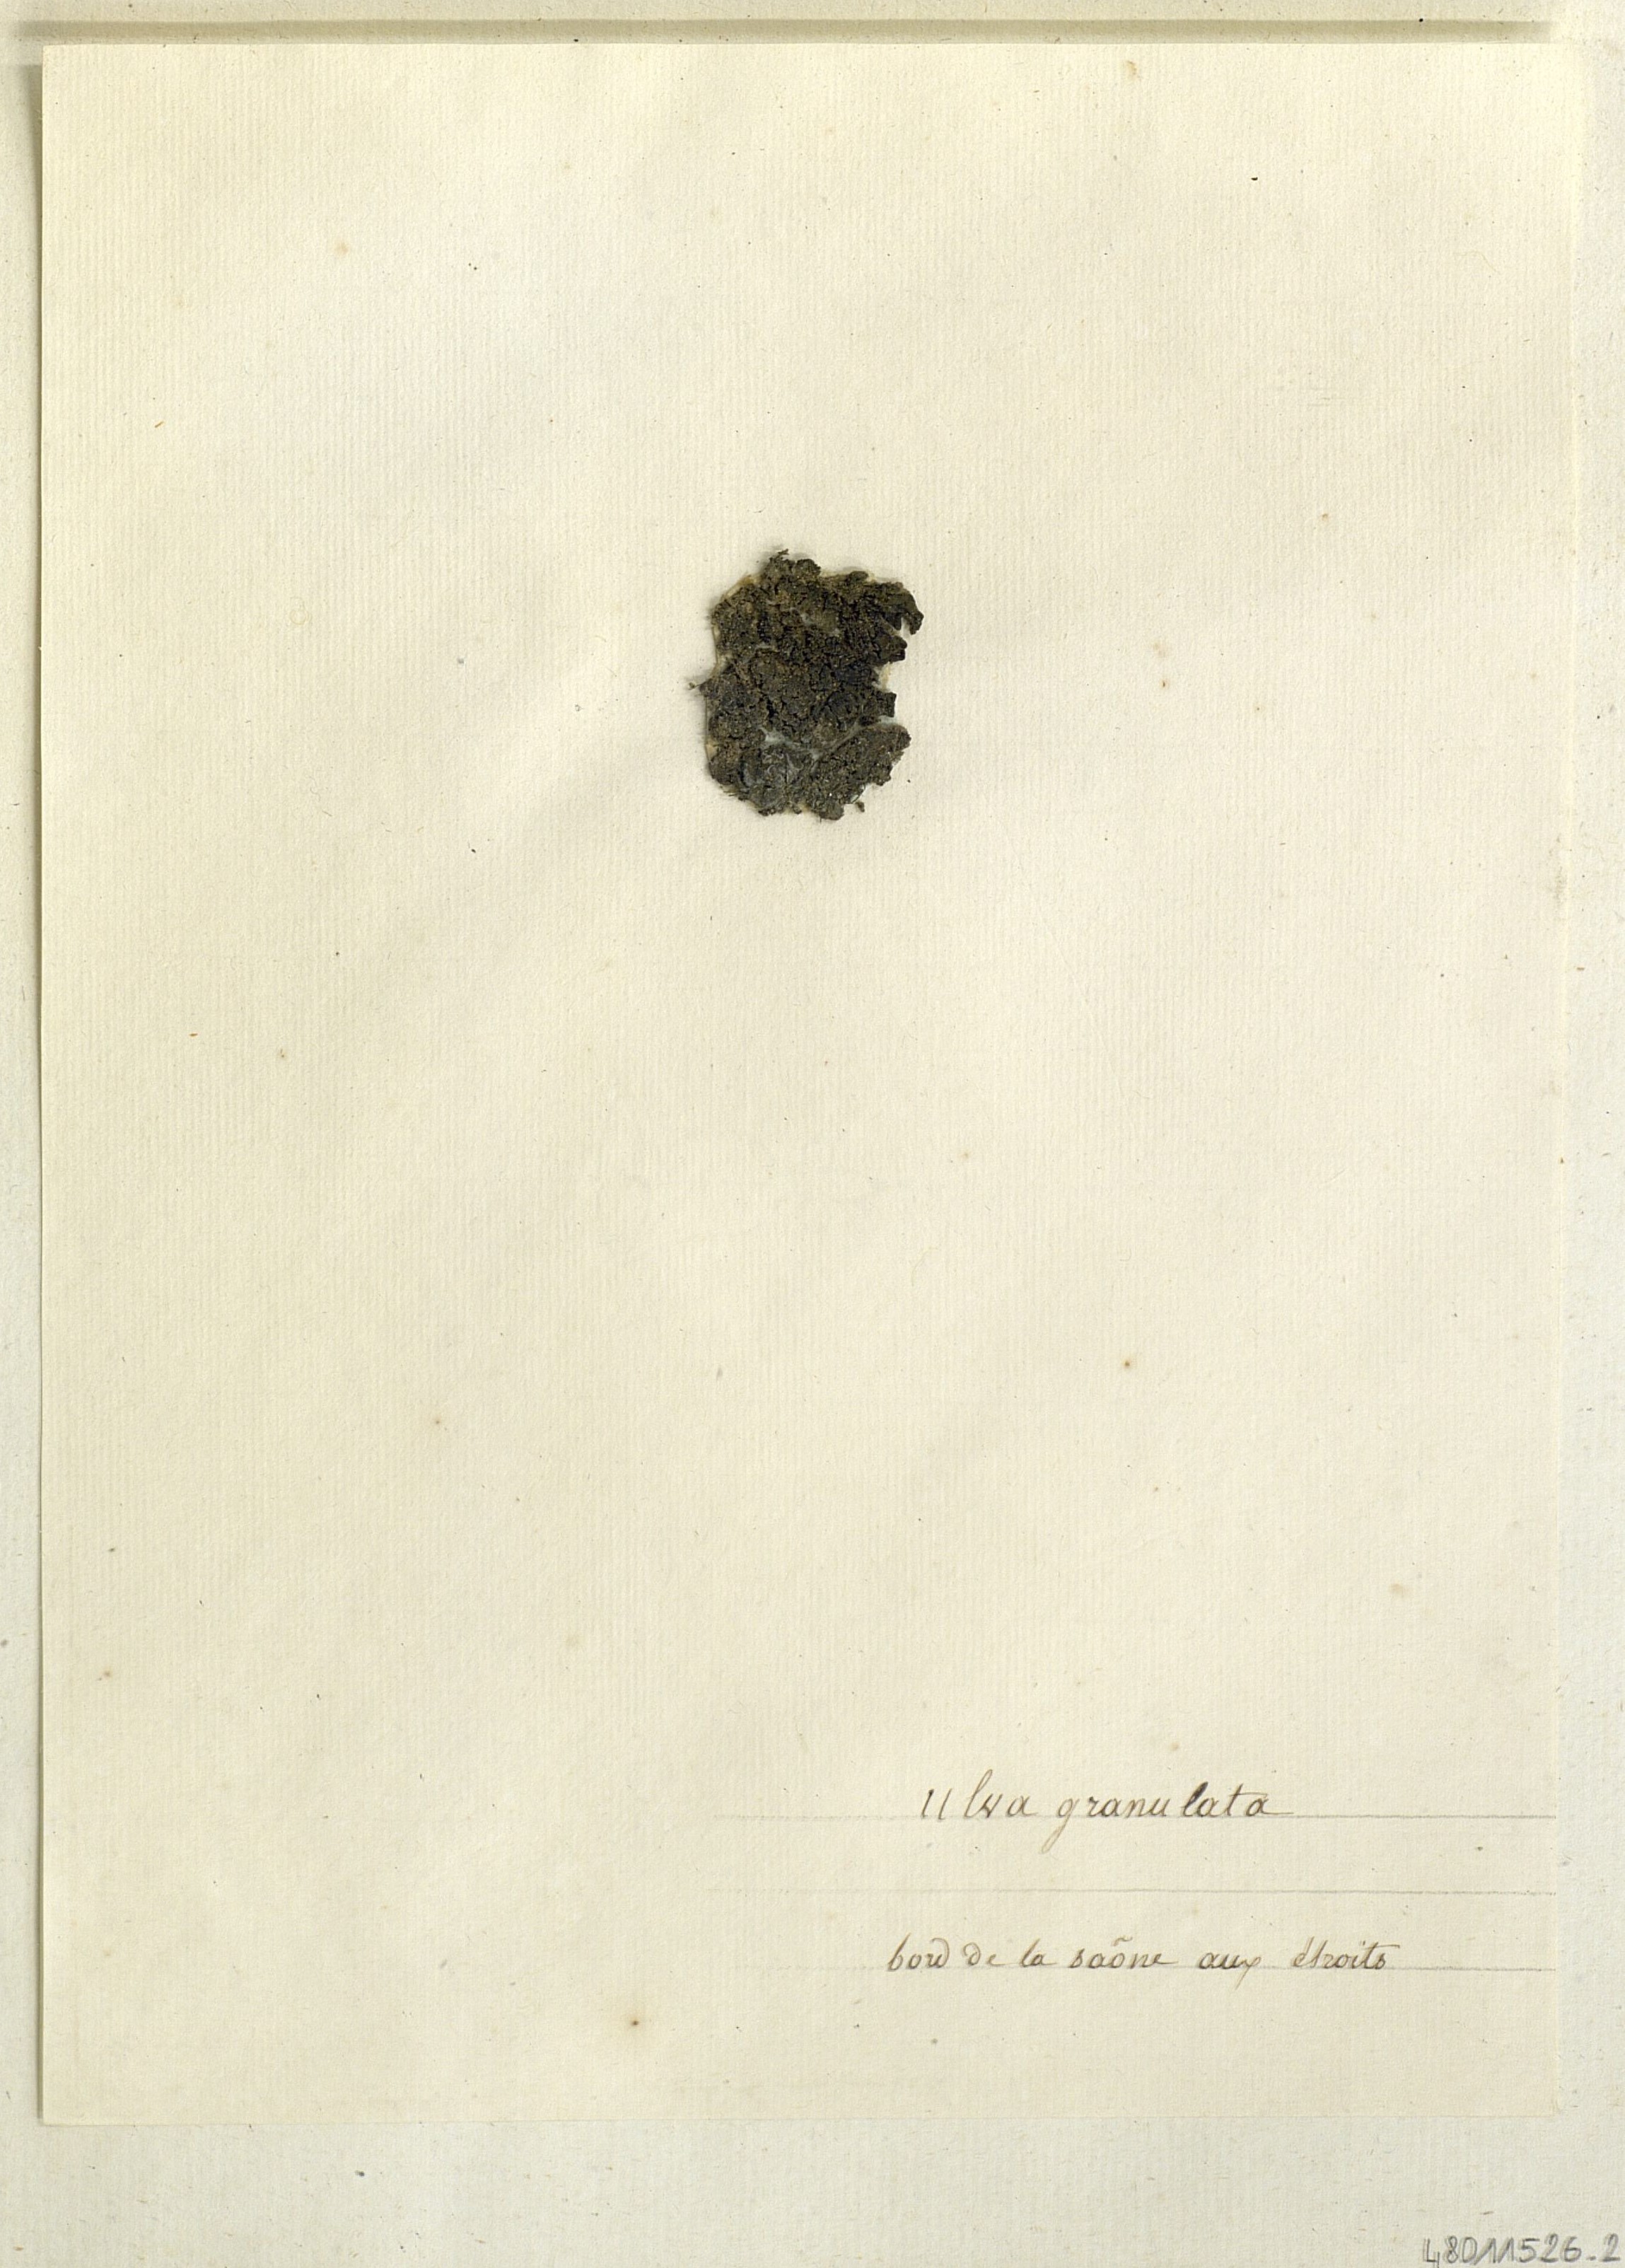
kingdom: Plantae
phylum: Chlorophyta
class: Ulvophyceae
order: Ulvales
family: Ulvaceae
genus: Ulva
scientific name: Ulva
